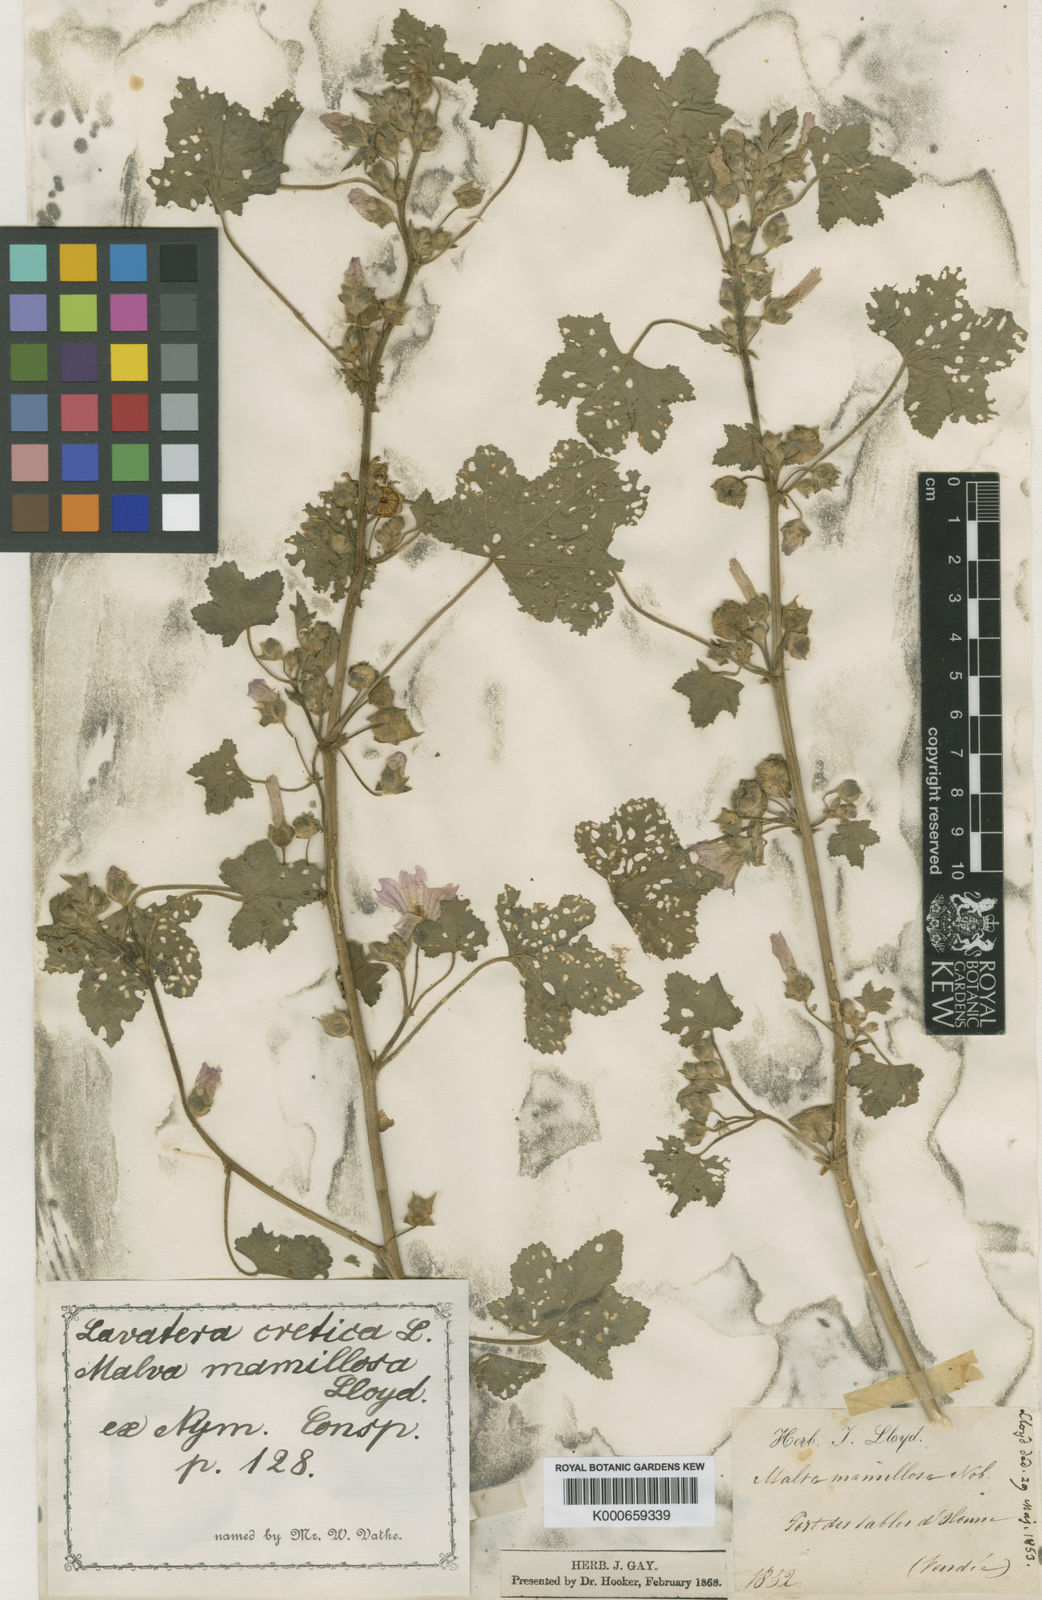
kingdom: Plantae
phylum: Tracheophyta
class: Magnoliopsida
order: Malvales
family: Malvaceae
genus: Malva
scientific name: Malva multiflora
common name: Cheeseweed
